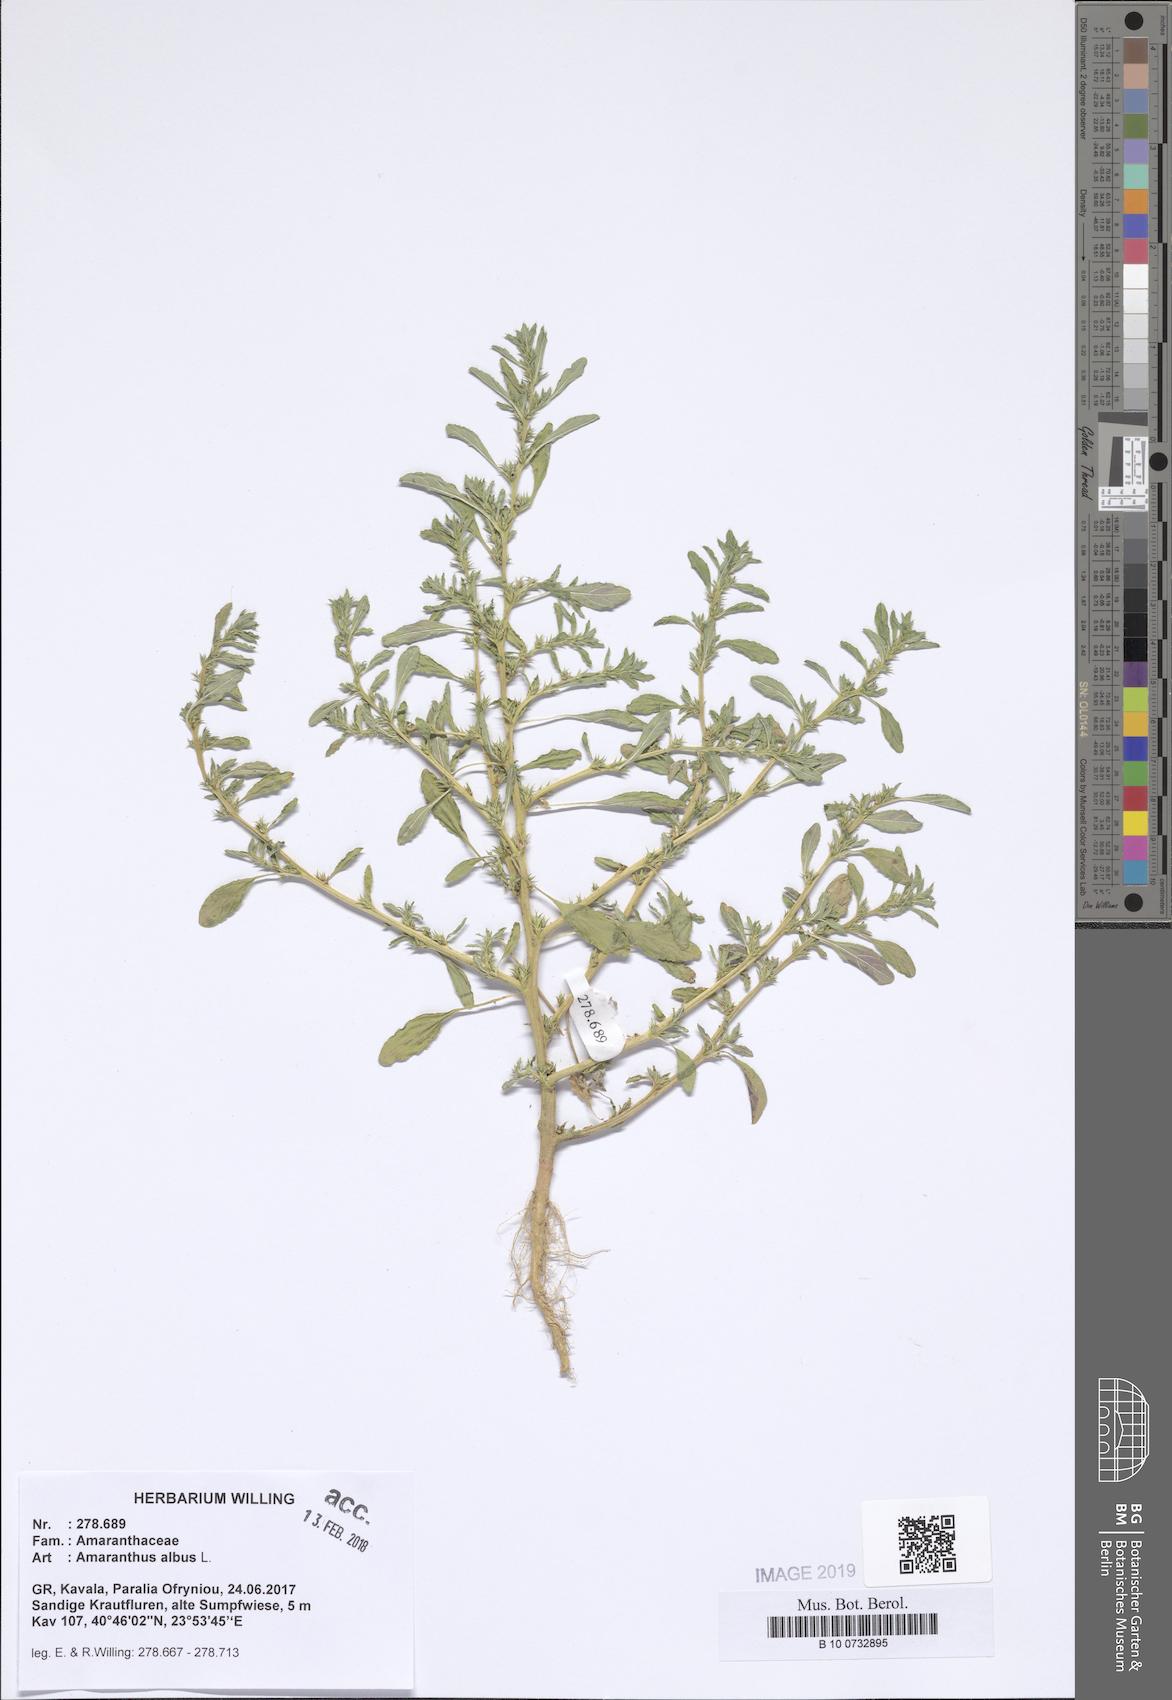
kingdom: Plantae
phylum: Tracheophyta
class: Magnoliopsida
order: Caryophyllales
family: Amaranthaceae
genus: Amaranthus
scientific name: Amaranthus albus
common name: White pigweed
